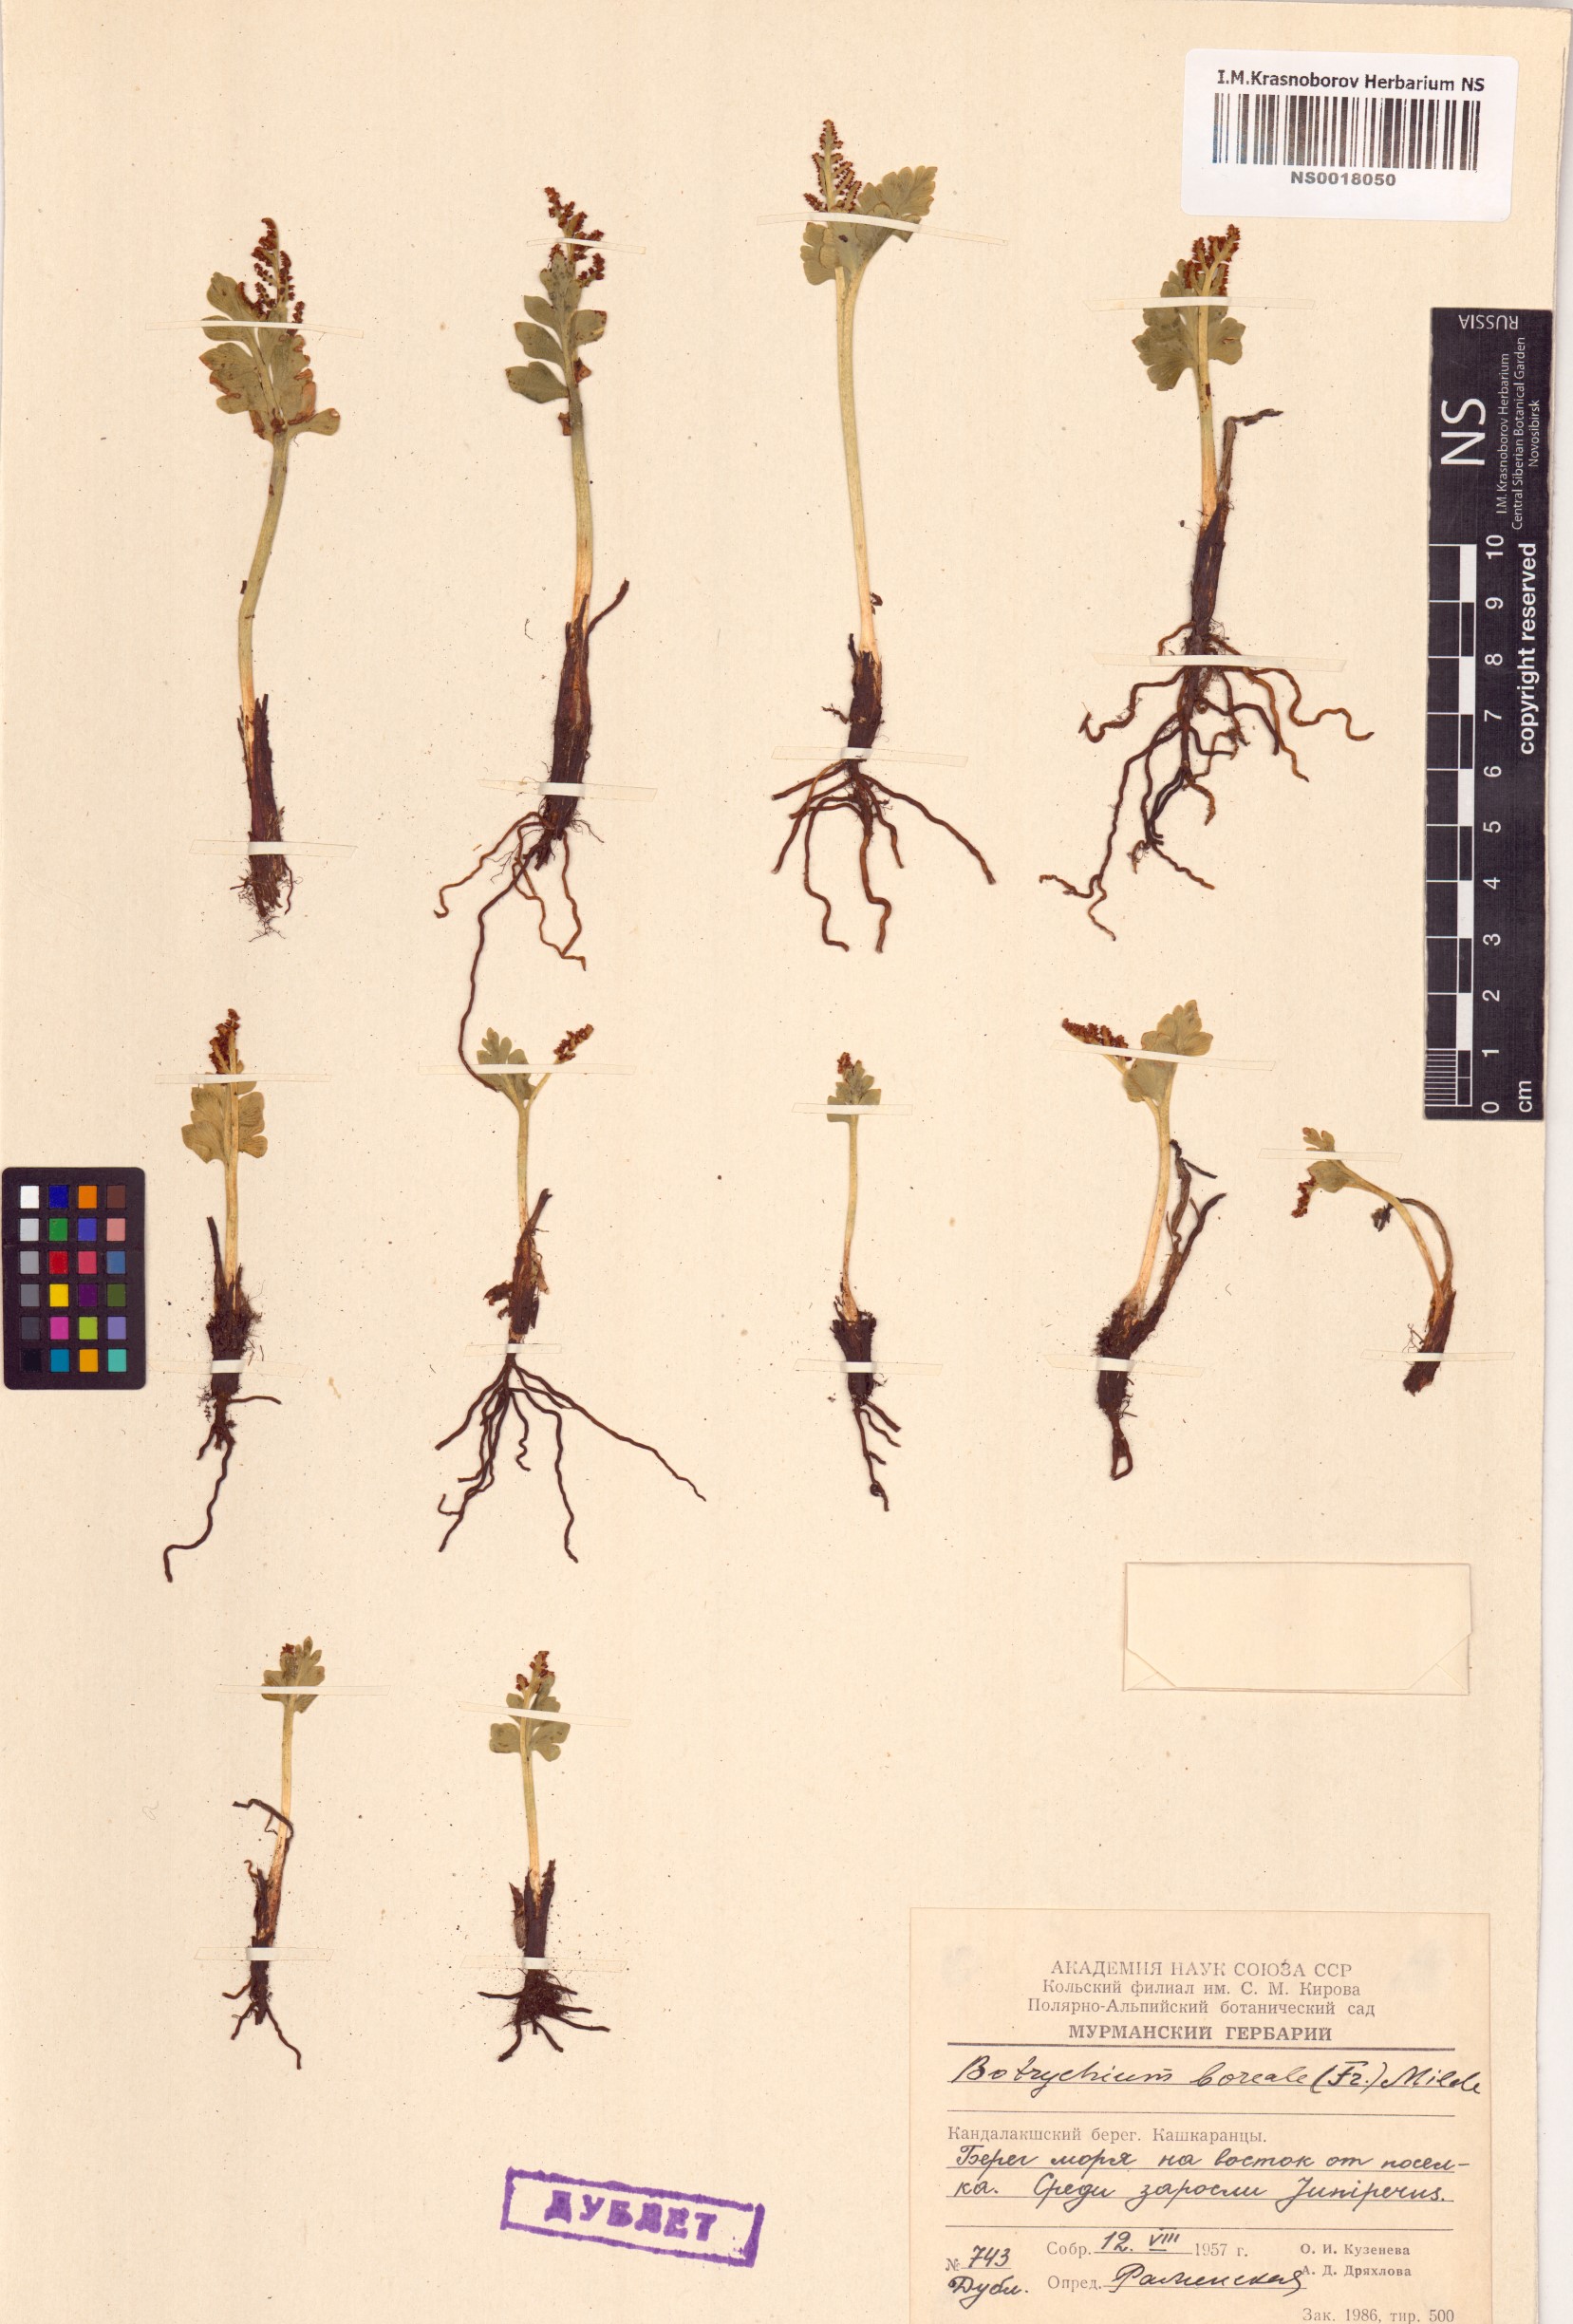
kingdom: Plantae
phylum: Tracheophyta
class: Polypodiopsida
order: Ophioglossales
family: Ophioglossaceae
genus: Botrychium
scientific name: Botrychium boreale
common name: Boreal moonwort
